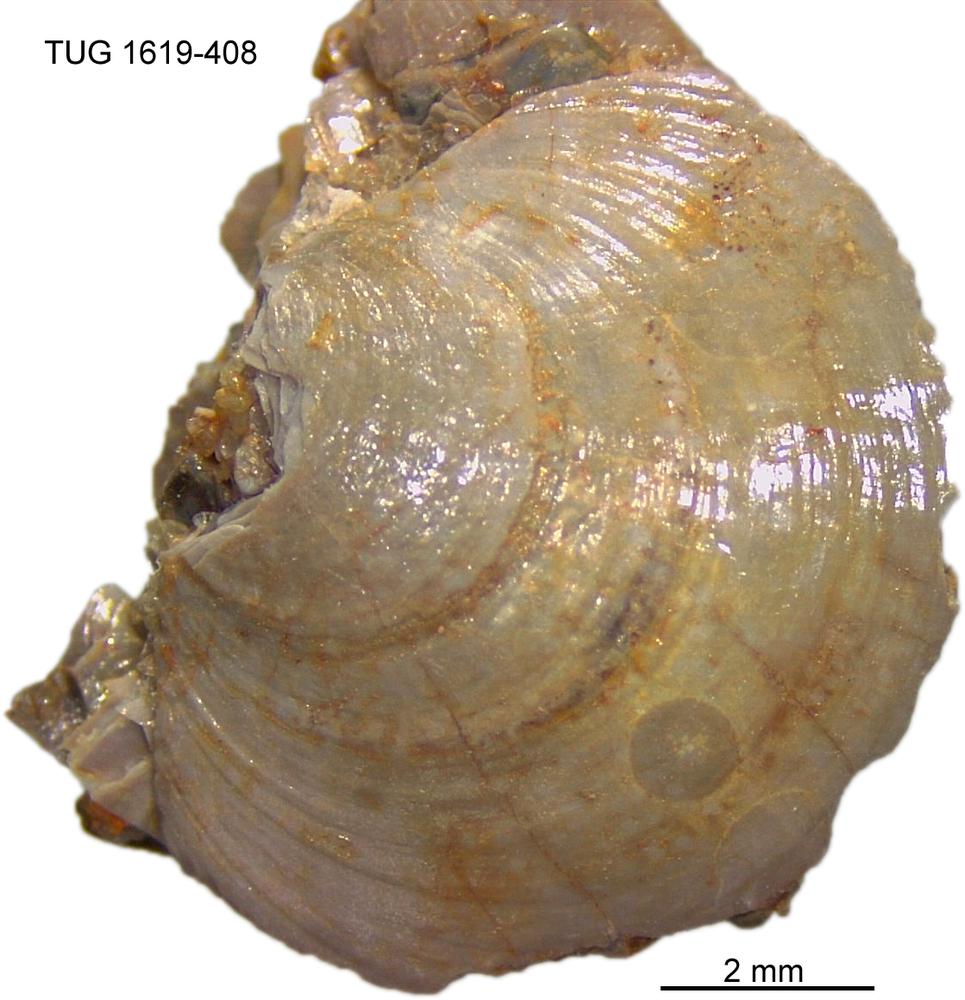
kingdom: Animalia
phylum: Porifera
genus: Ungula
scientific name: Ungula
